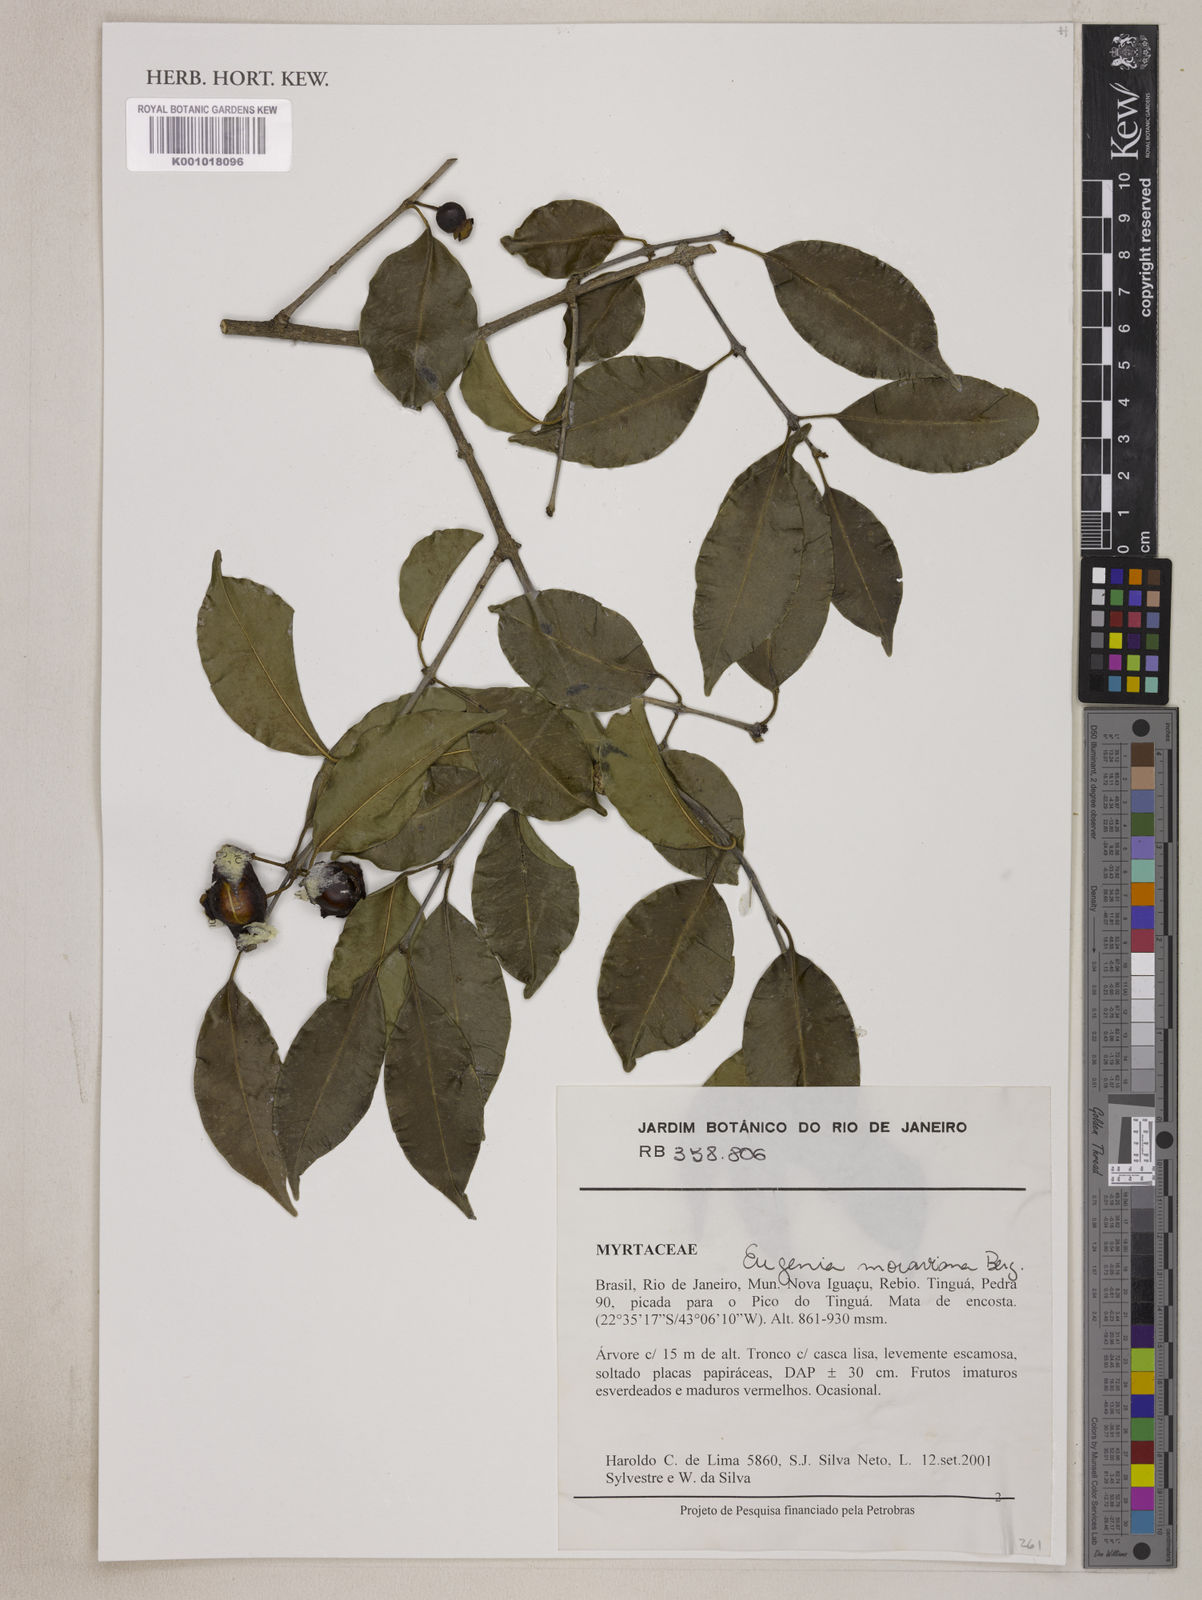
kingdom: Plantae
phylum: Tracheophyta
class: Magnoliopsida
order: Myrtales
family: Myrtaceae
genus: Eugenia
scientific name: Eugenia modesta
